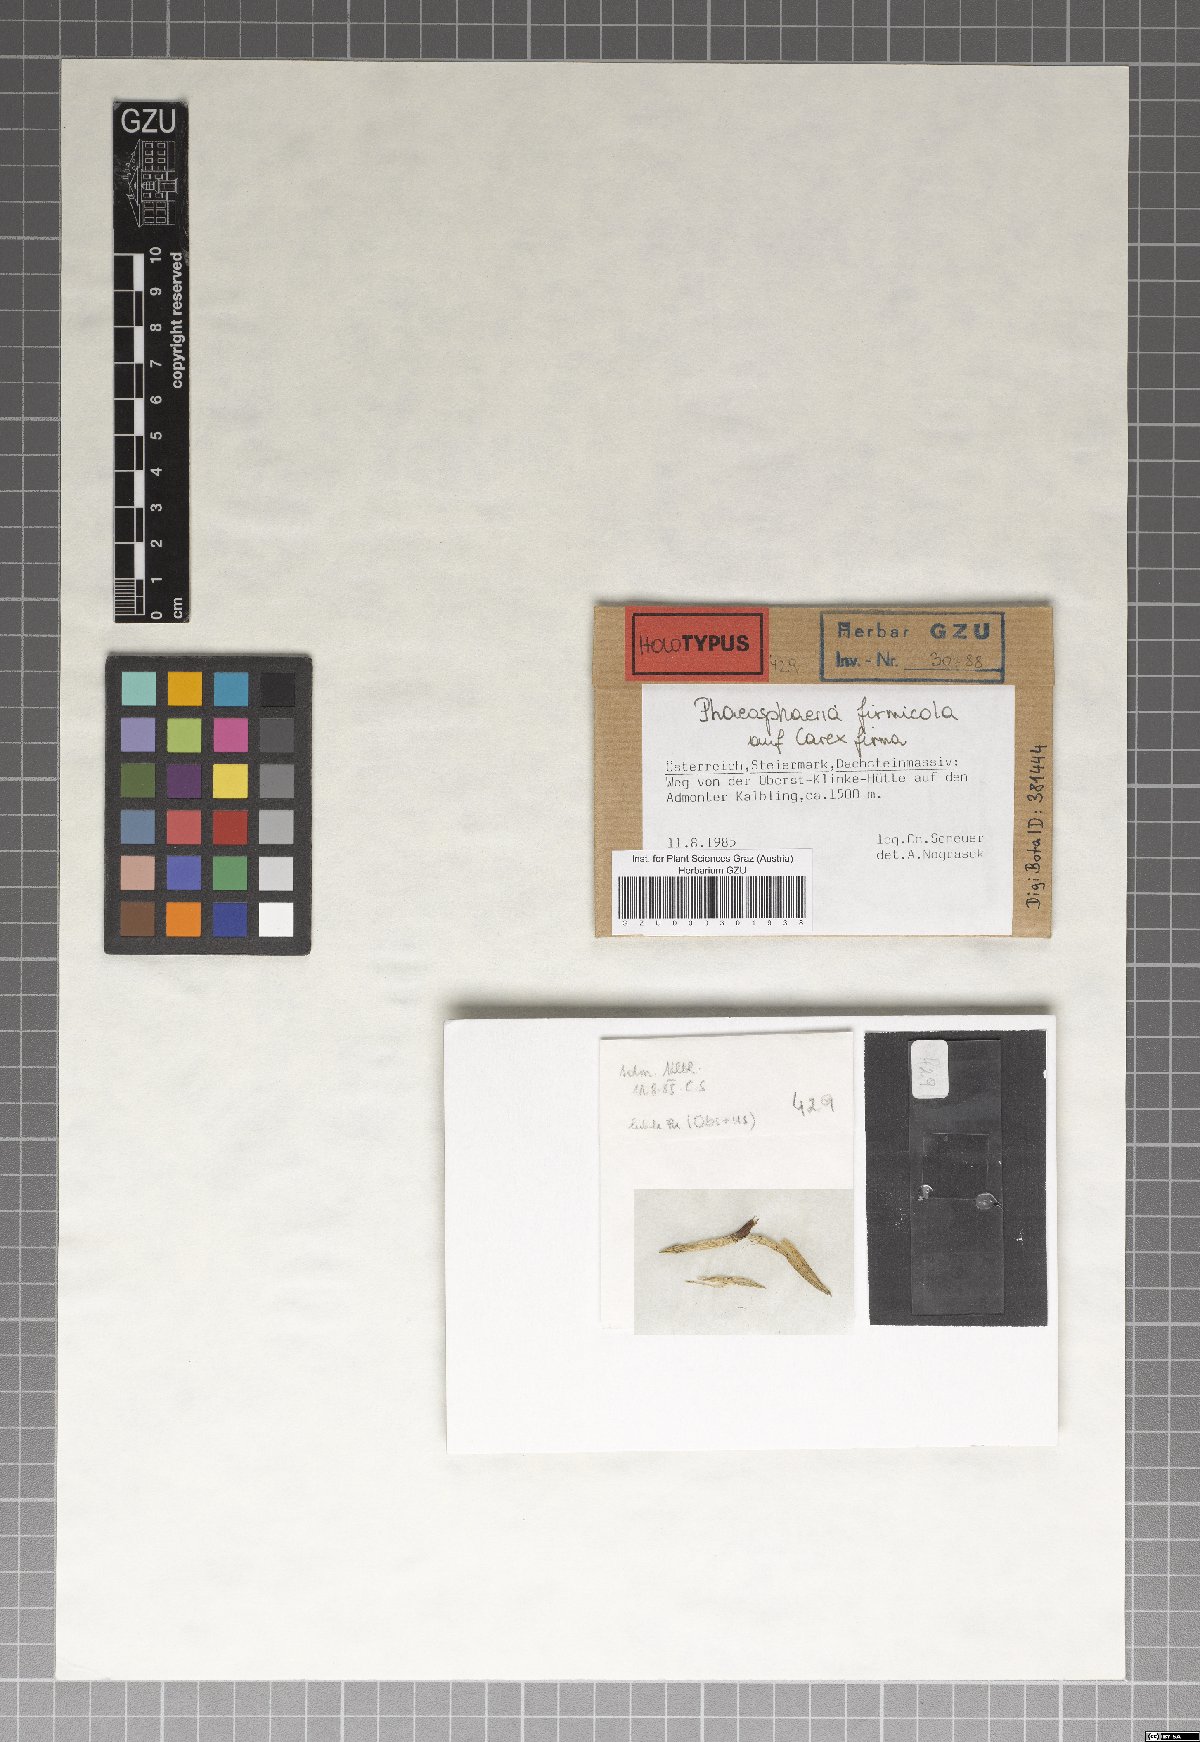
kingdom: Fungi
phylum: Ascomycota
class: Dothideomycetes
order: Pleosporales
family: Phaeosphaeriaceae
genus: Phaeosphaeria
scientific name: Phaeosphaeria firmicola
